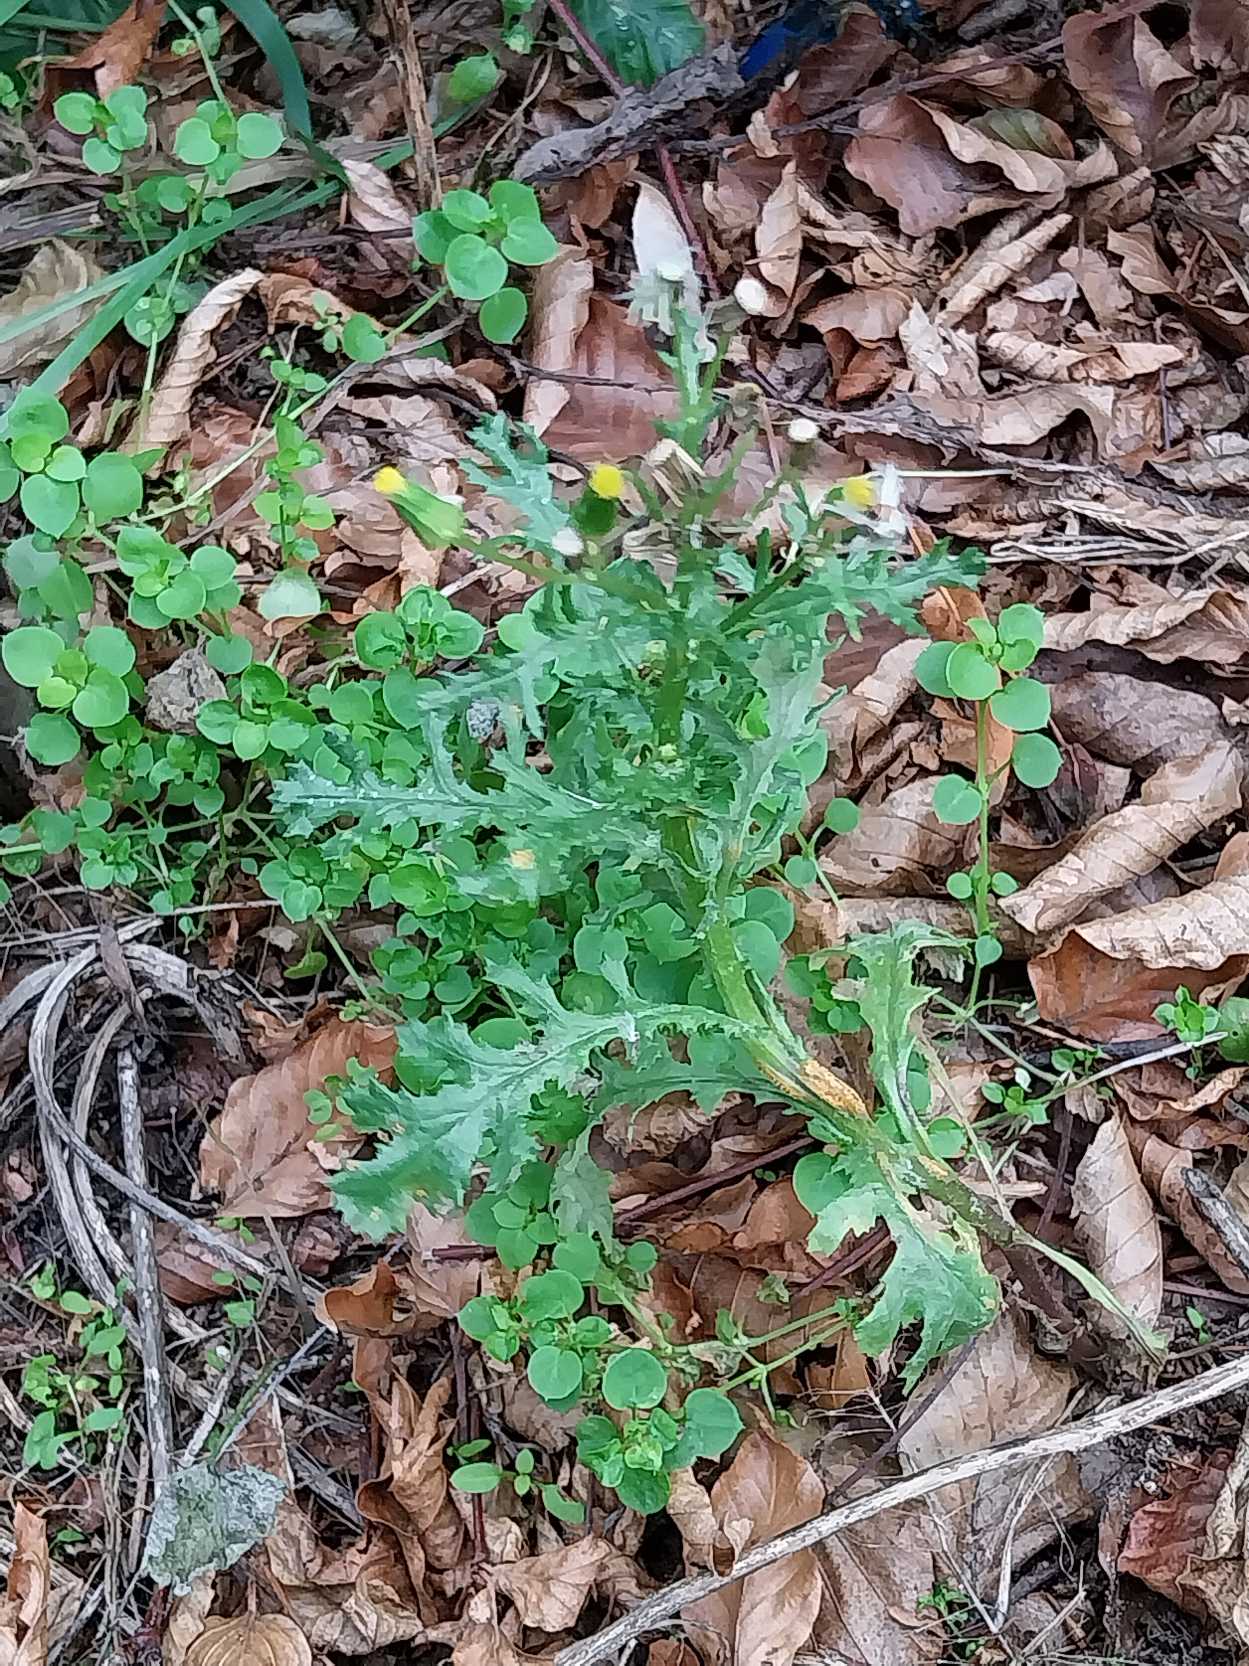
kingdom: Plantae
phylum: Tracheophyta
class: Magnoliopsida
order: Asterales
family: Asteraceae
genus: Senecio
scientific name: Senecio vulgaris
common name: Almindelig brandbæger
